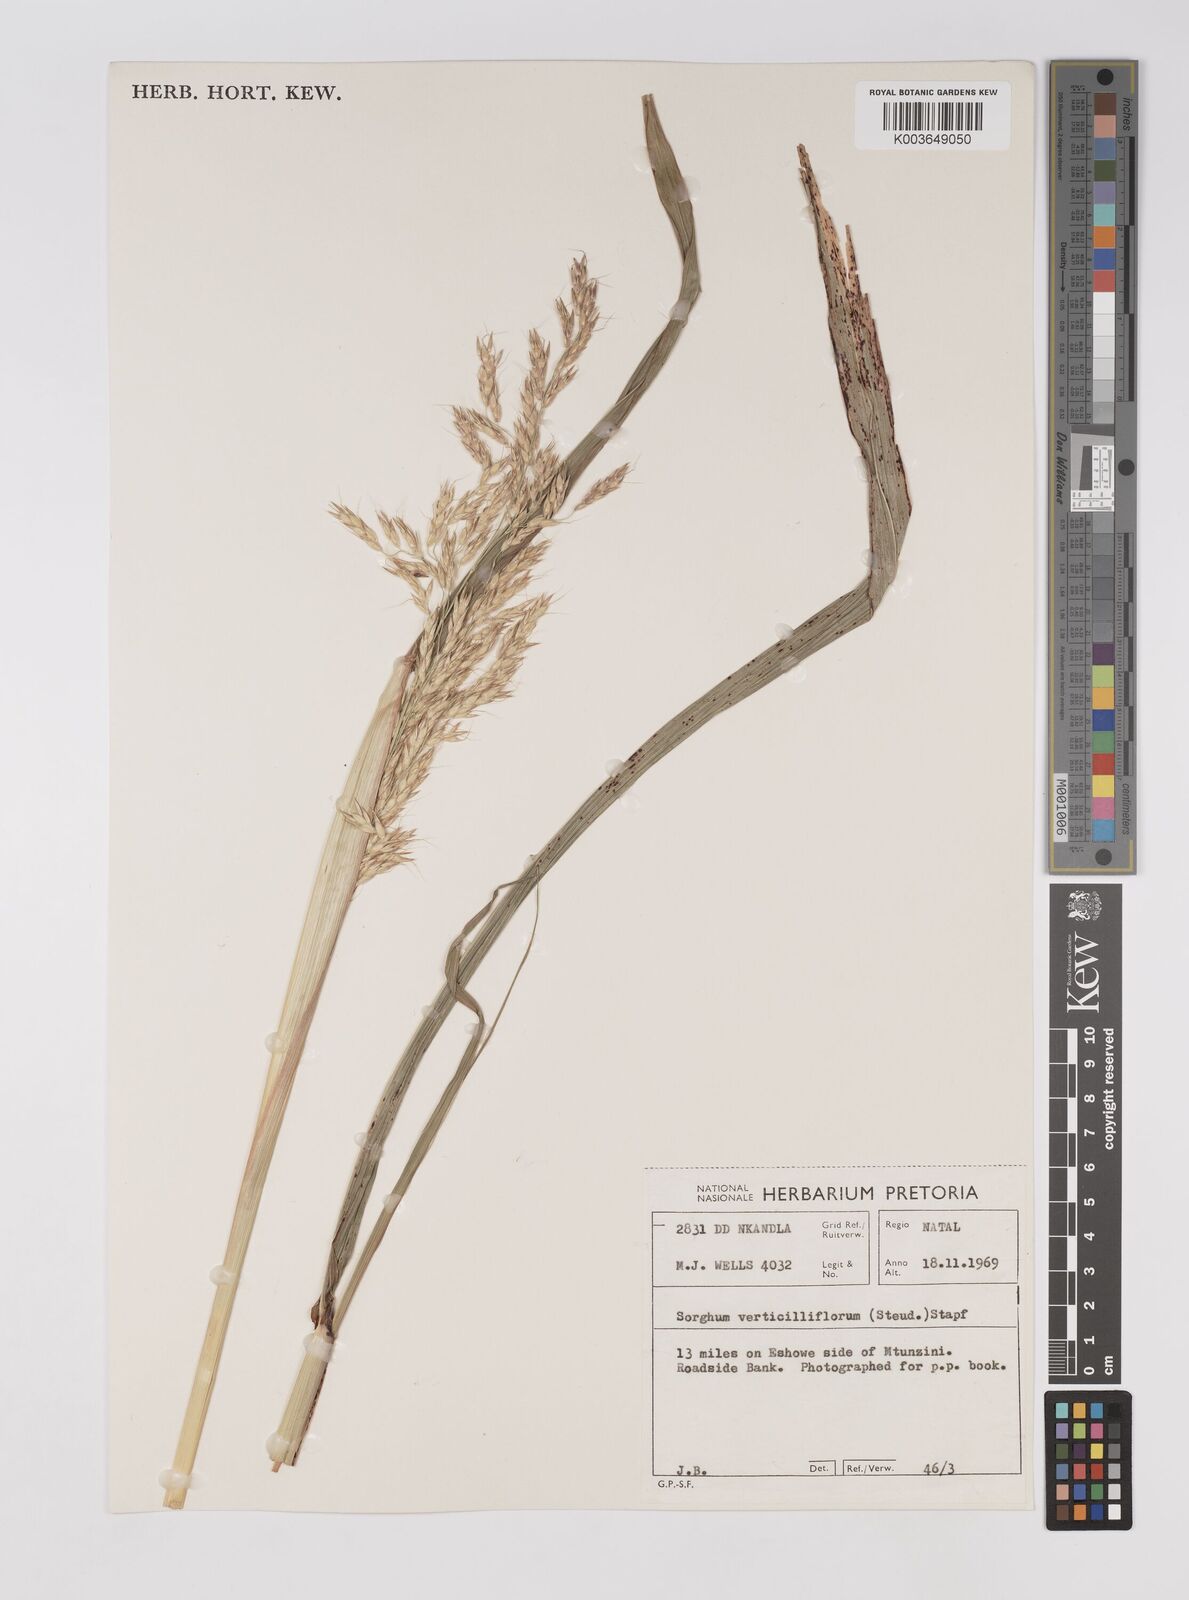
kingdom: Plantae
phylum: Tracheophyta
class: Liliopsida
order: Poales
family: Poaceae
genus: Sorghum
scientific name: Sorghum arundinaceum
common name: Sorghum
